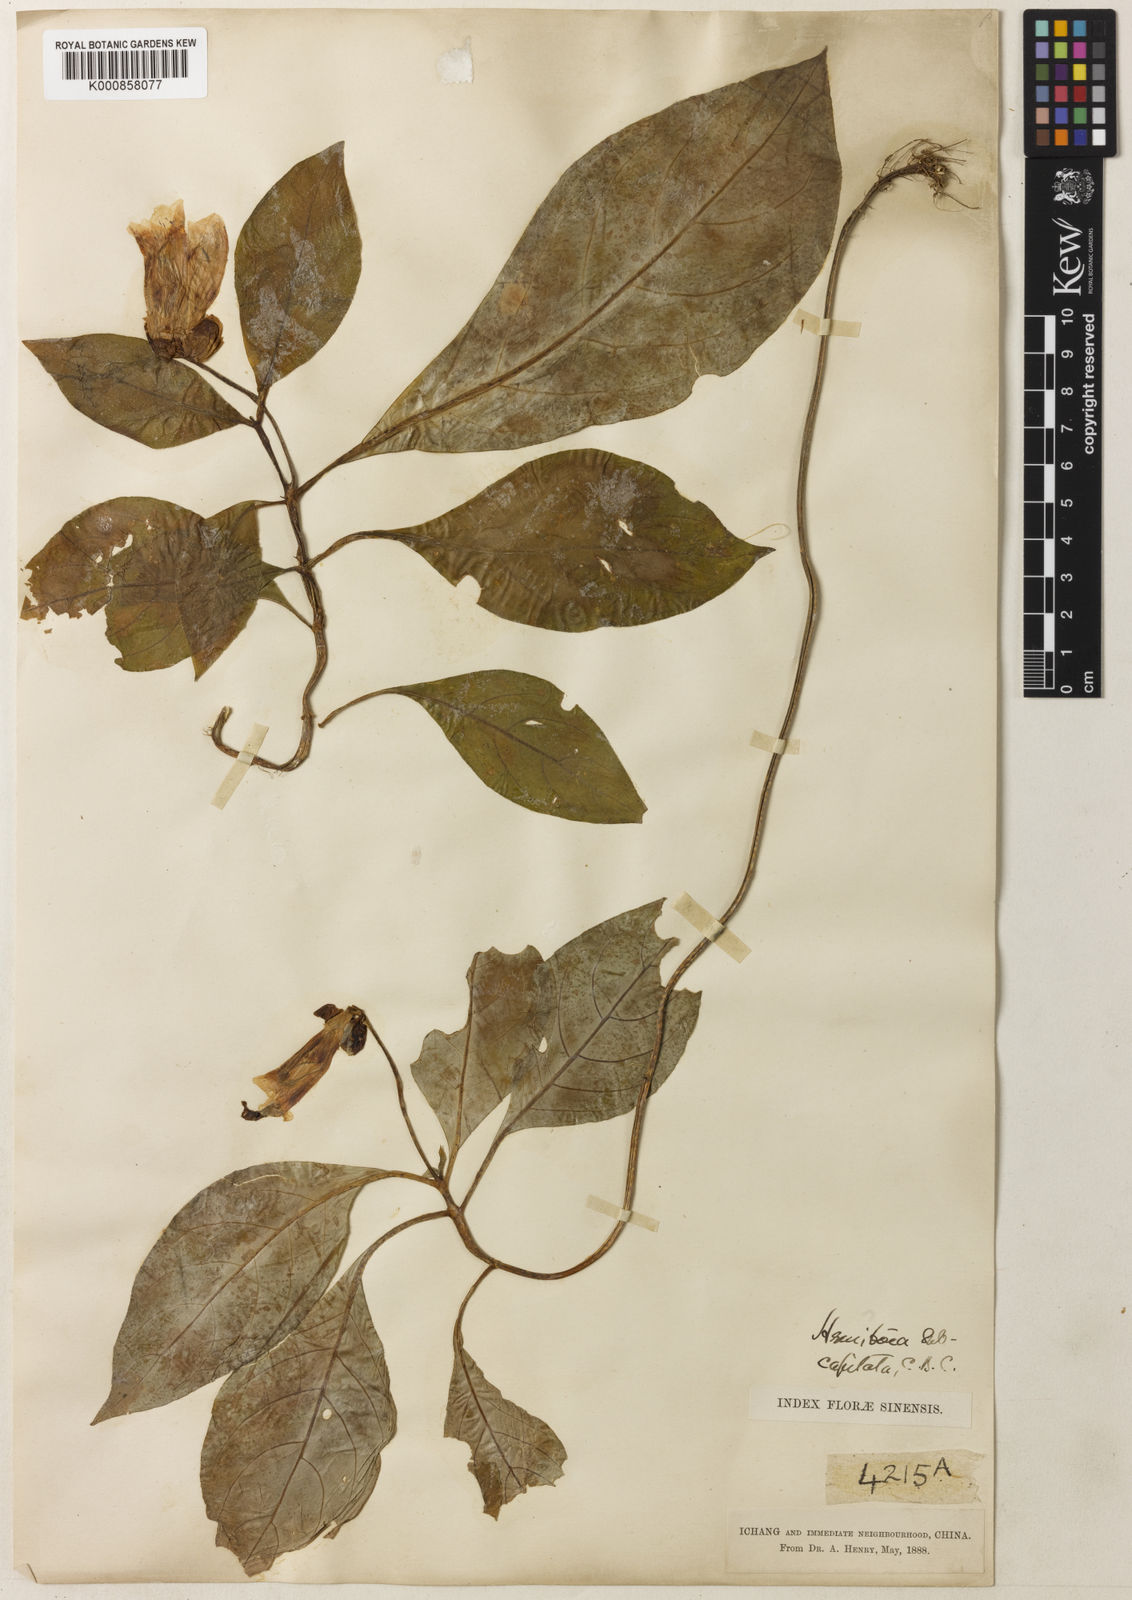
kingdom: Plantae
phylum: Tracheophyta
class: Magnoliopsida
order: Lamiales
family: Gesneriaceae
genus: Hemiboea
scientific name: Hemiboea subcapitata
